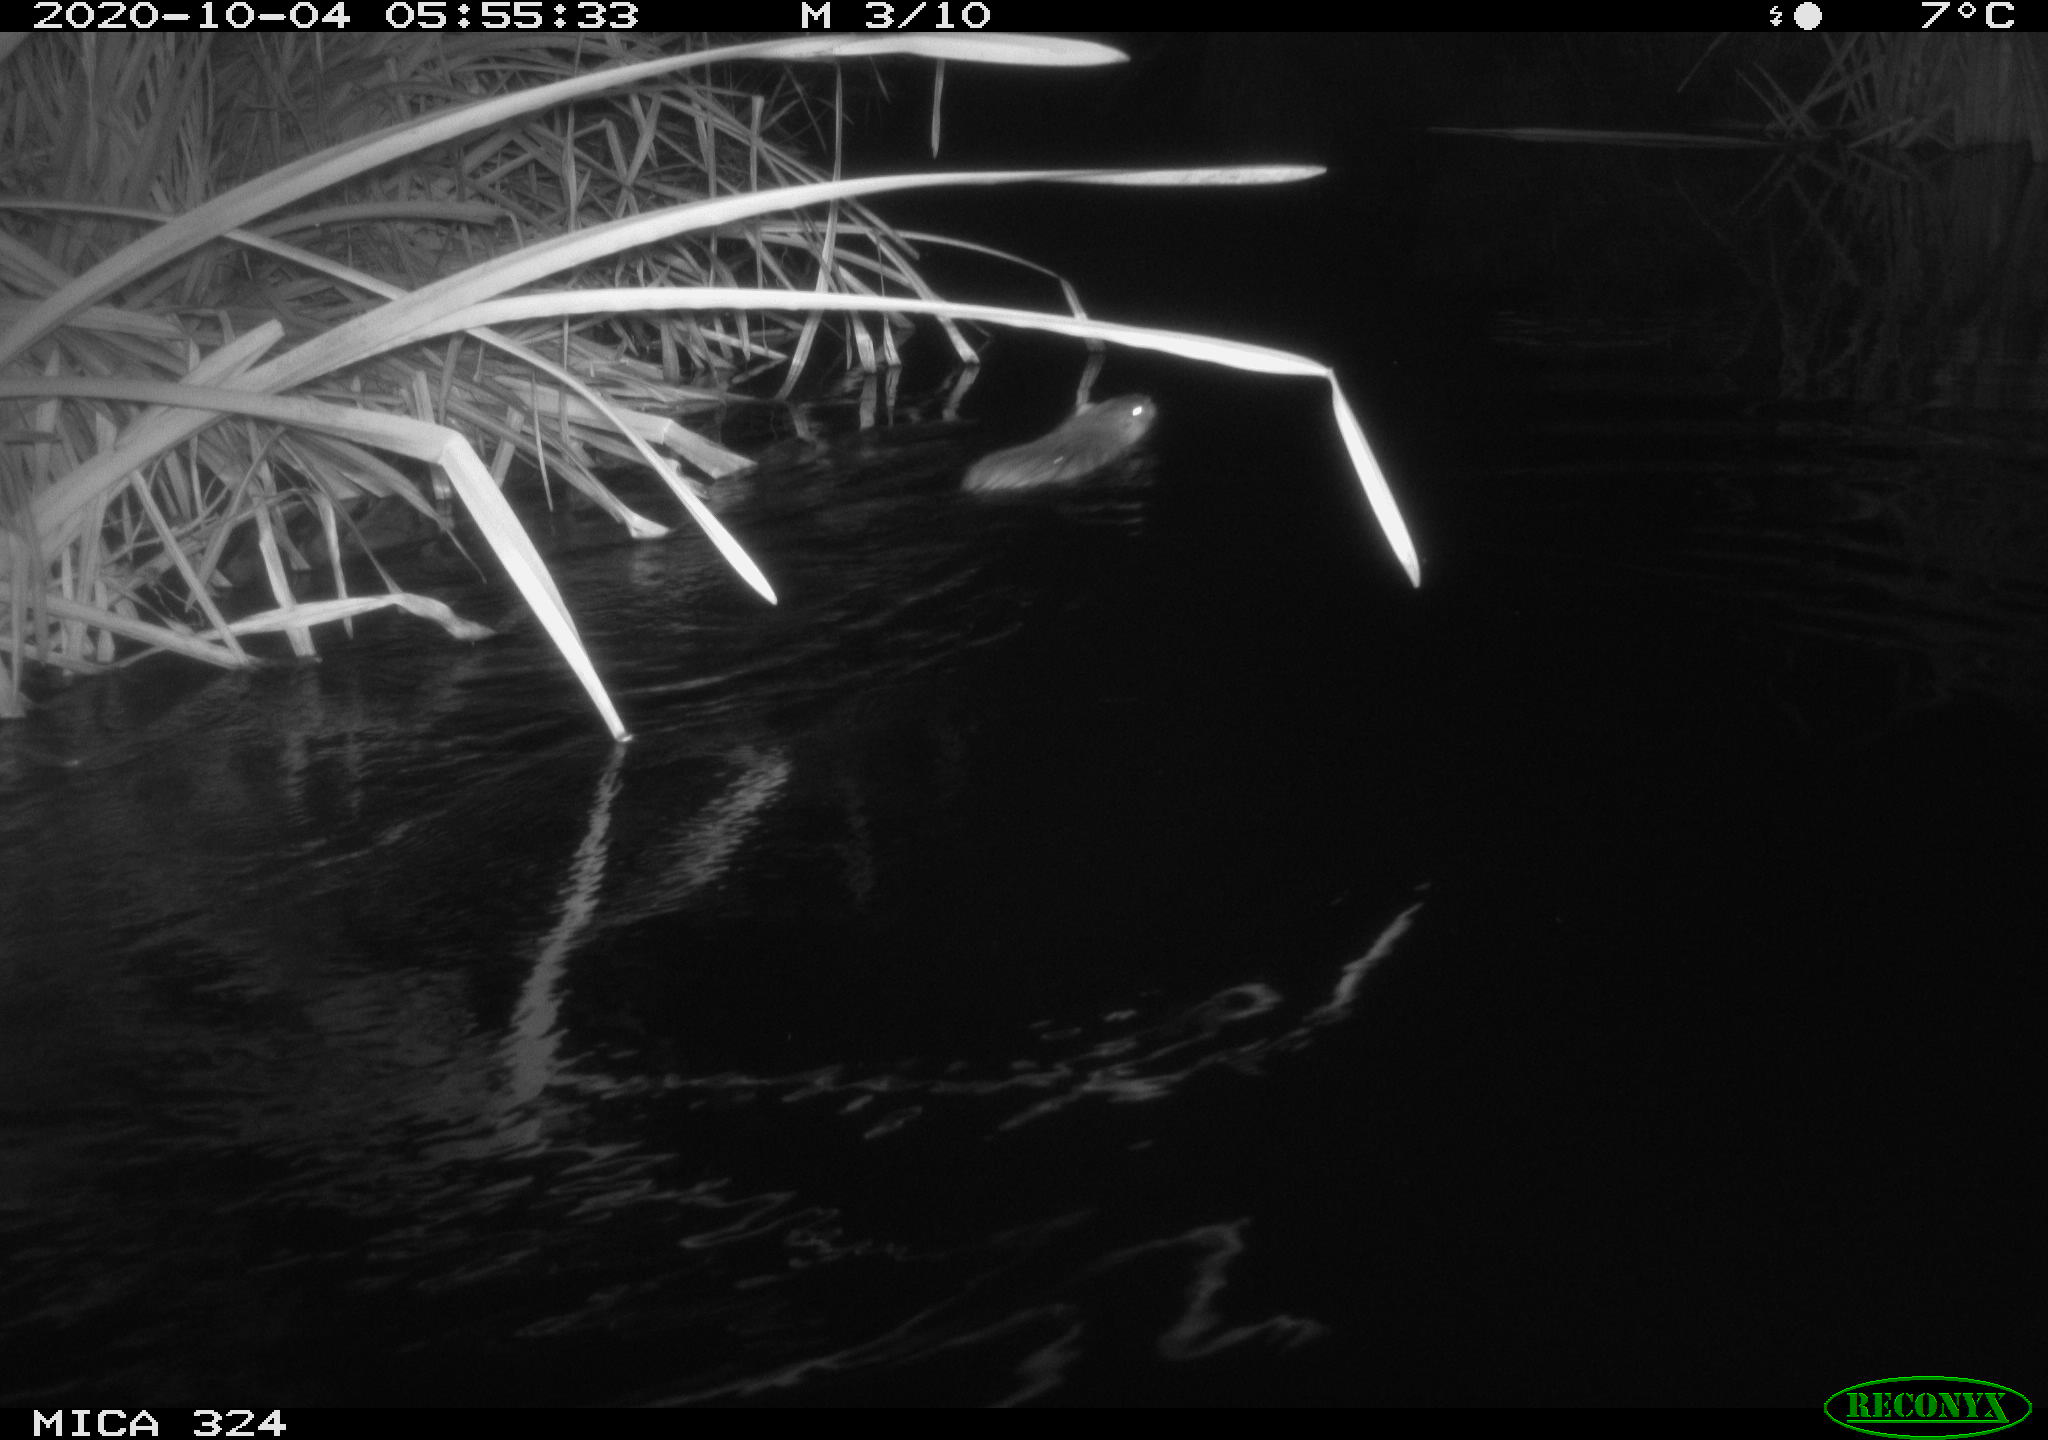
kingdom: Animalia
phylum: Chordata
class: Mammalia
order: Rodentia
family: Myocastoridae
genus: Myocastor
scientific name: Myocastor coypus
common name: Coypu
